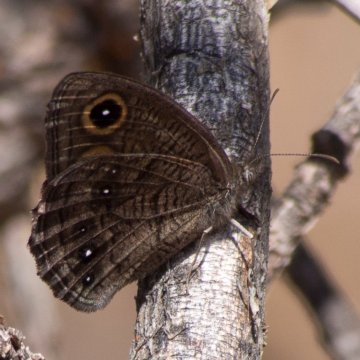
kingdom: Animalia
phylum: Arthropoda
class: Insecta
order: Lepidoptera
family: Nymphalidae
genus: Cercyonis
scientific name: Cercyonis sthenele
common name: Great Basin Wood-Nymph
